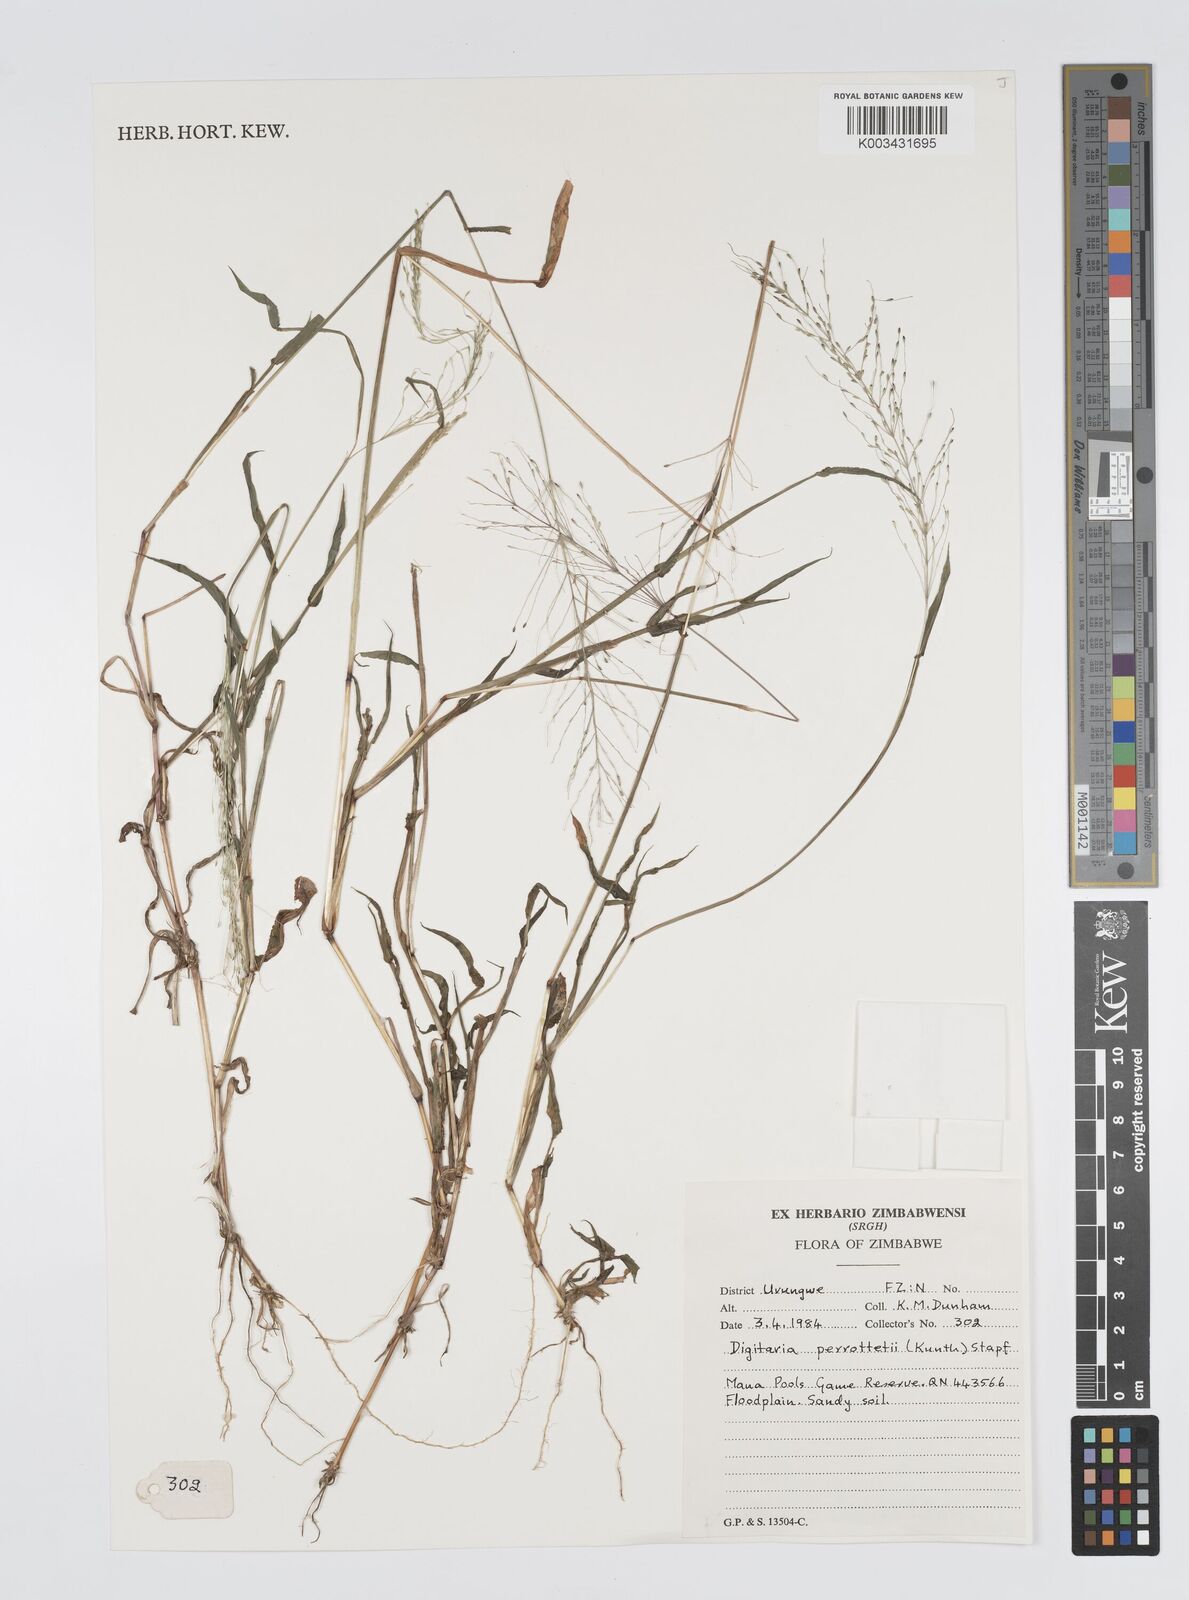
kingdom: Plantae
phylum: Tracheophyta
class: Liliopsida
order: Poales
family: Poaceae
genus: Digitaria
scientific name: Digitaria perrottetii
